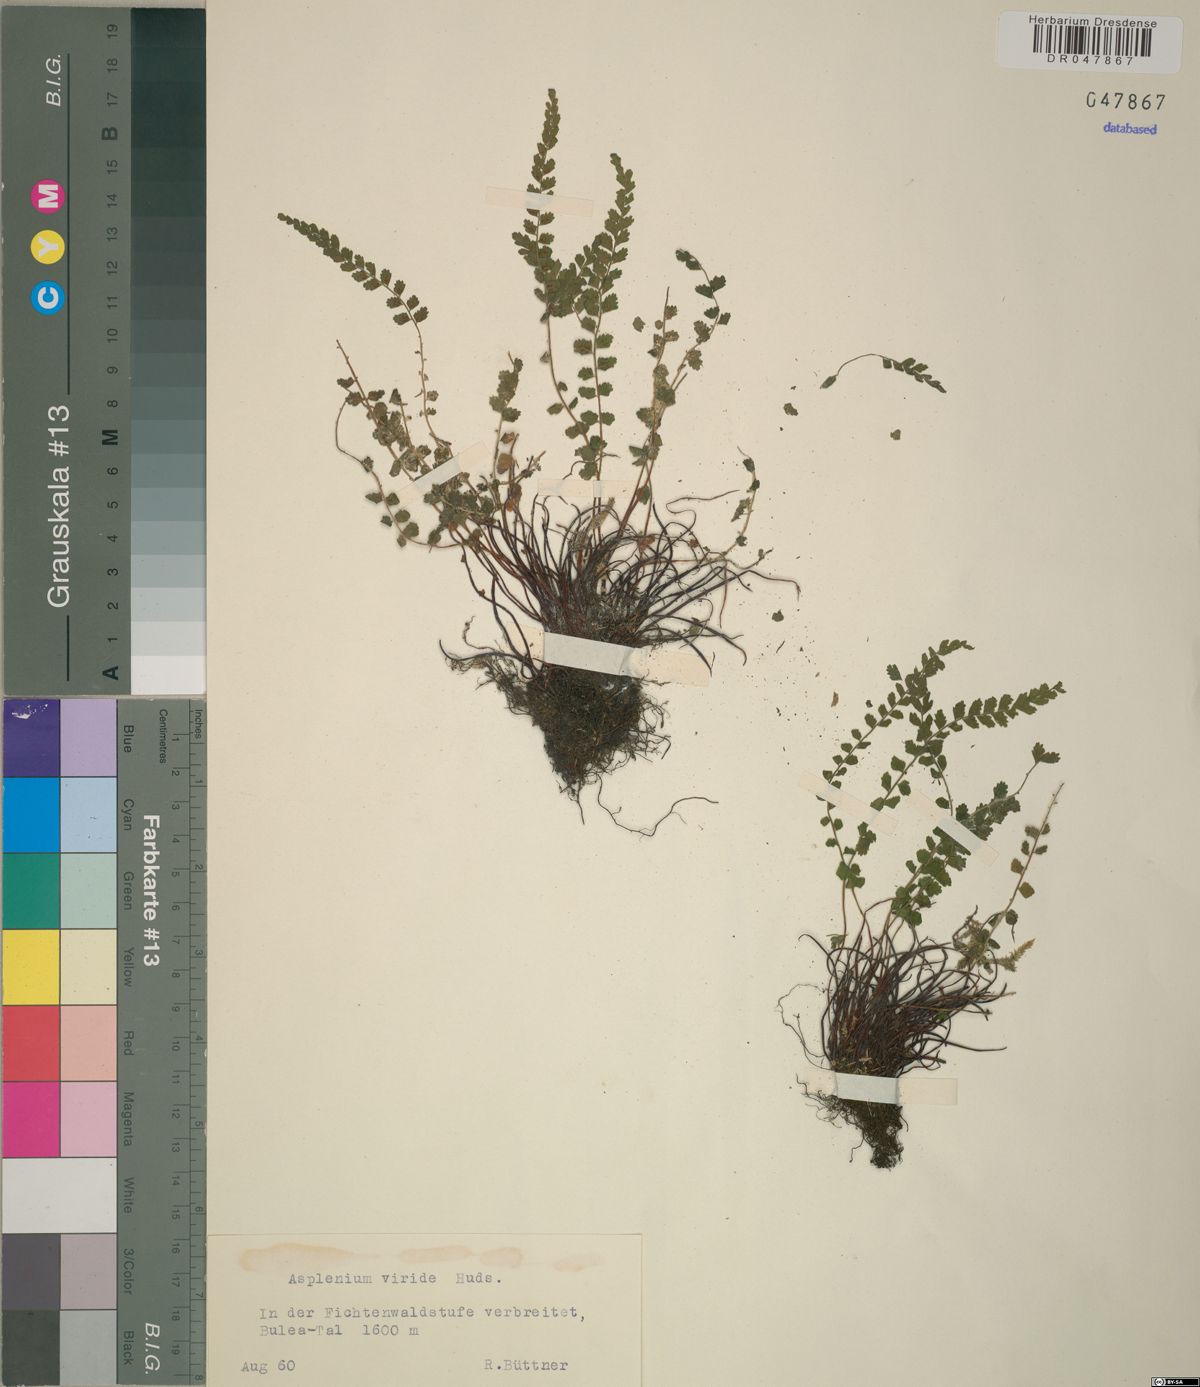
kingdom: Plantae
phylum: Tracheophyta
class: Polypodiopsida
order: Polypodiales
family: Aspleniaceae
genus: Asplenium
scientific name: Asplenium viride
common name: Green spleenwort
